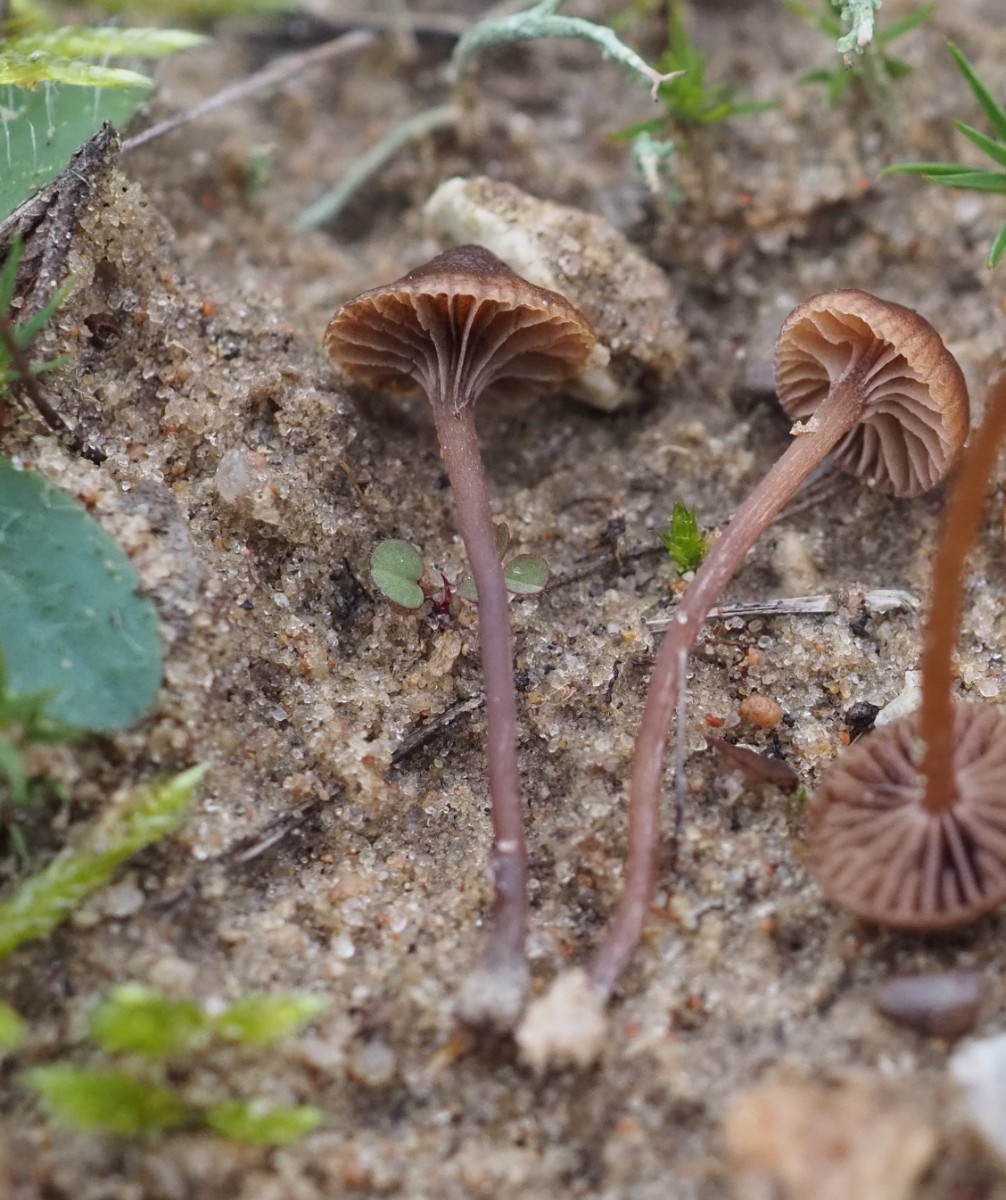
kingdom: Fungi
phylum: Basidiomycota
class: Agaricomycetes
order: Agaricales
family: Strophariaceae
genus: Deconica
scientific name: Deconica montana
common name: rødbrun stråhat
